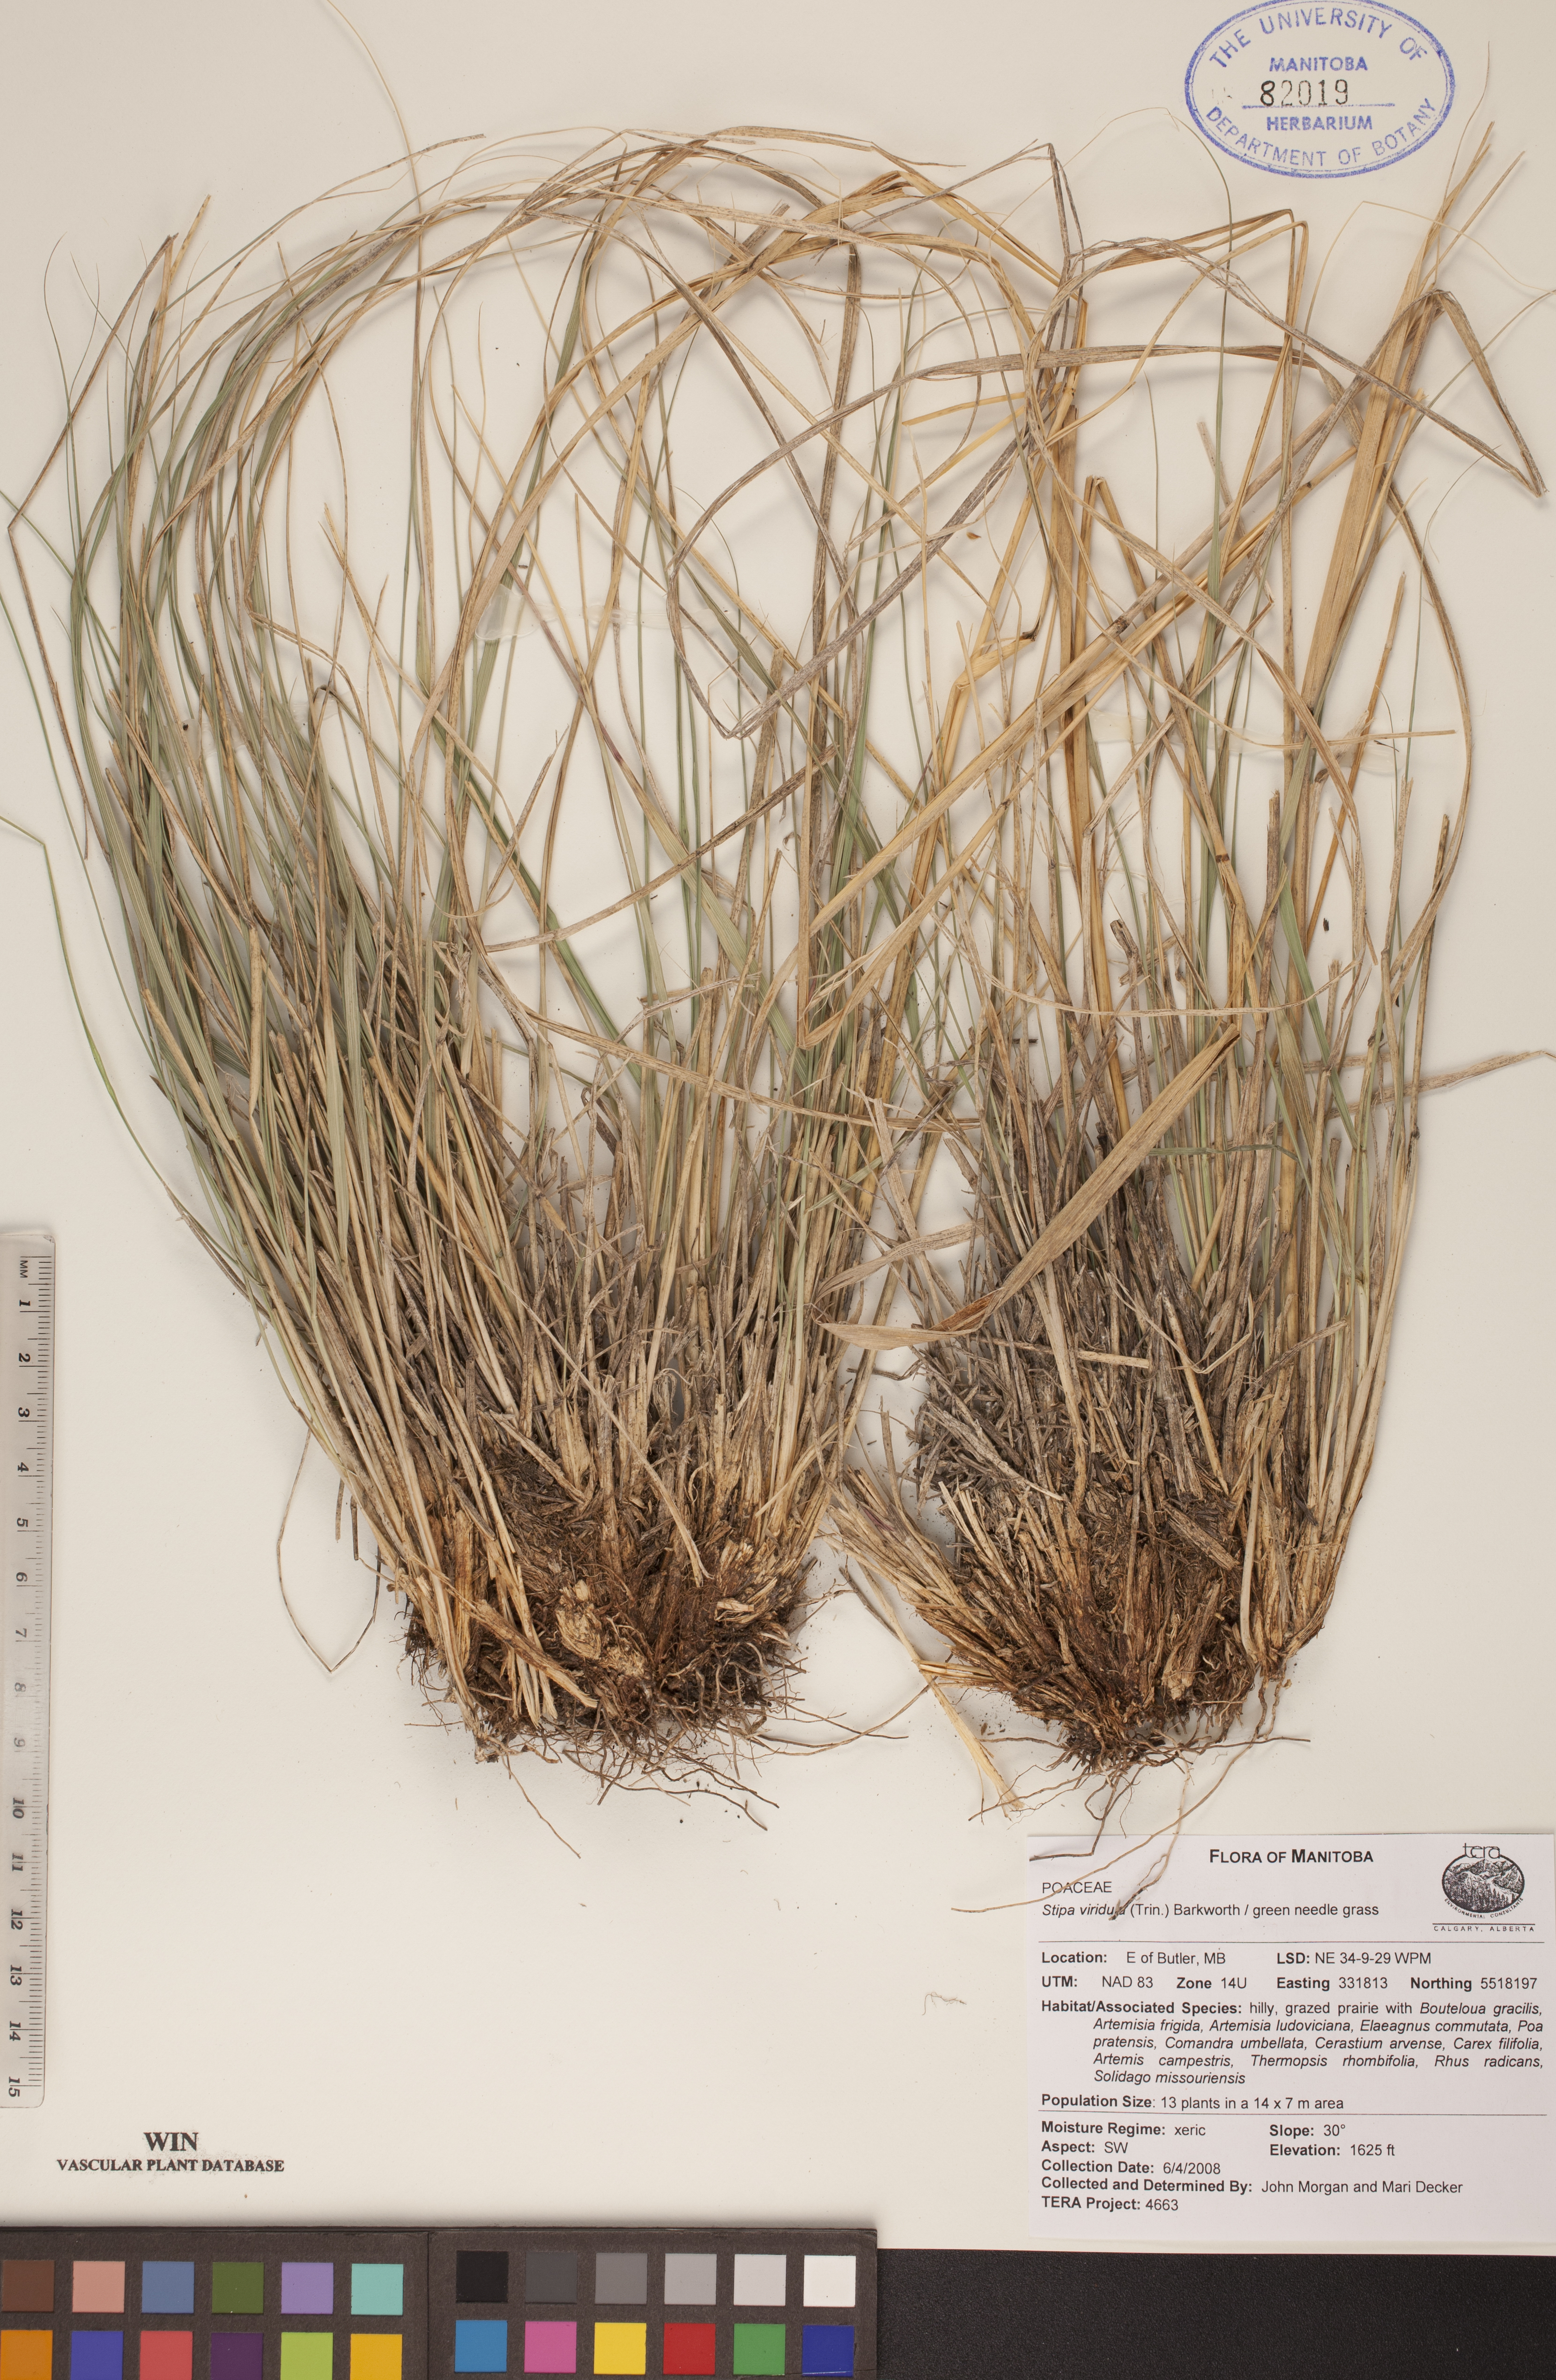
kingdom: Plantae
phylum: Tracheophyta
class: Liliopsida
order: Poales
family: Poaceae
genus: Nassella
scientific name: Nassella viridula
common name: Green needlegrass
